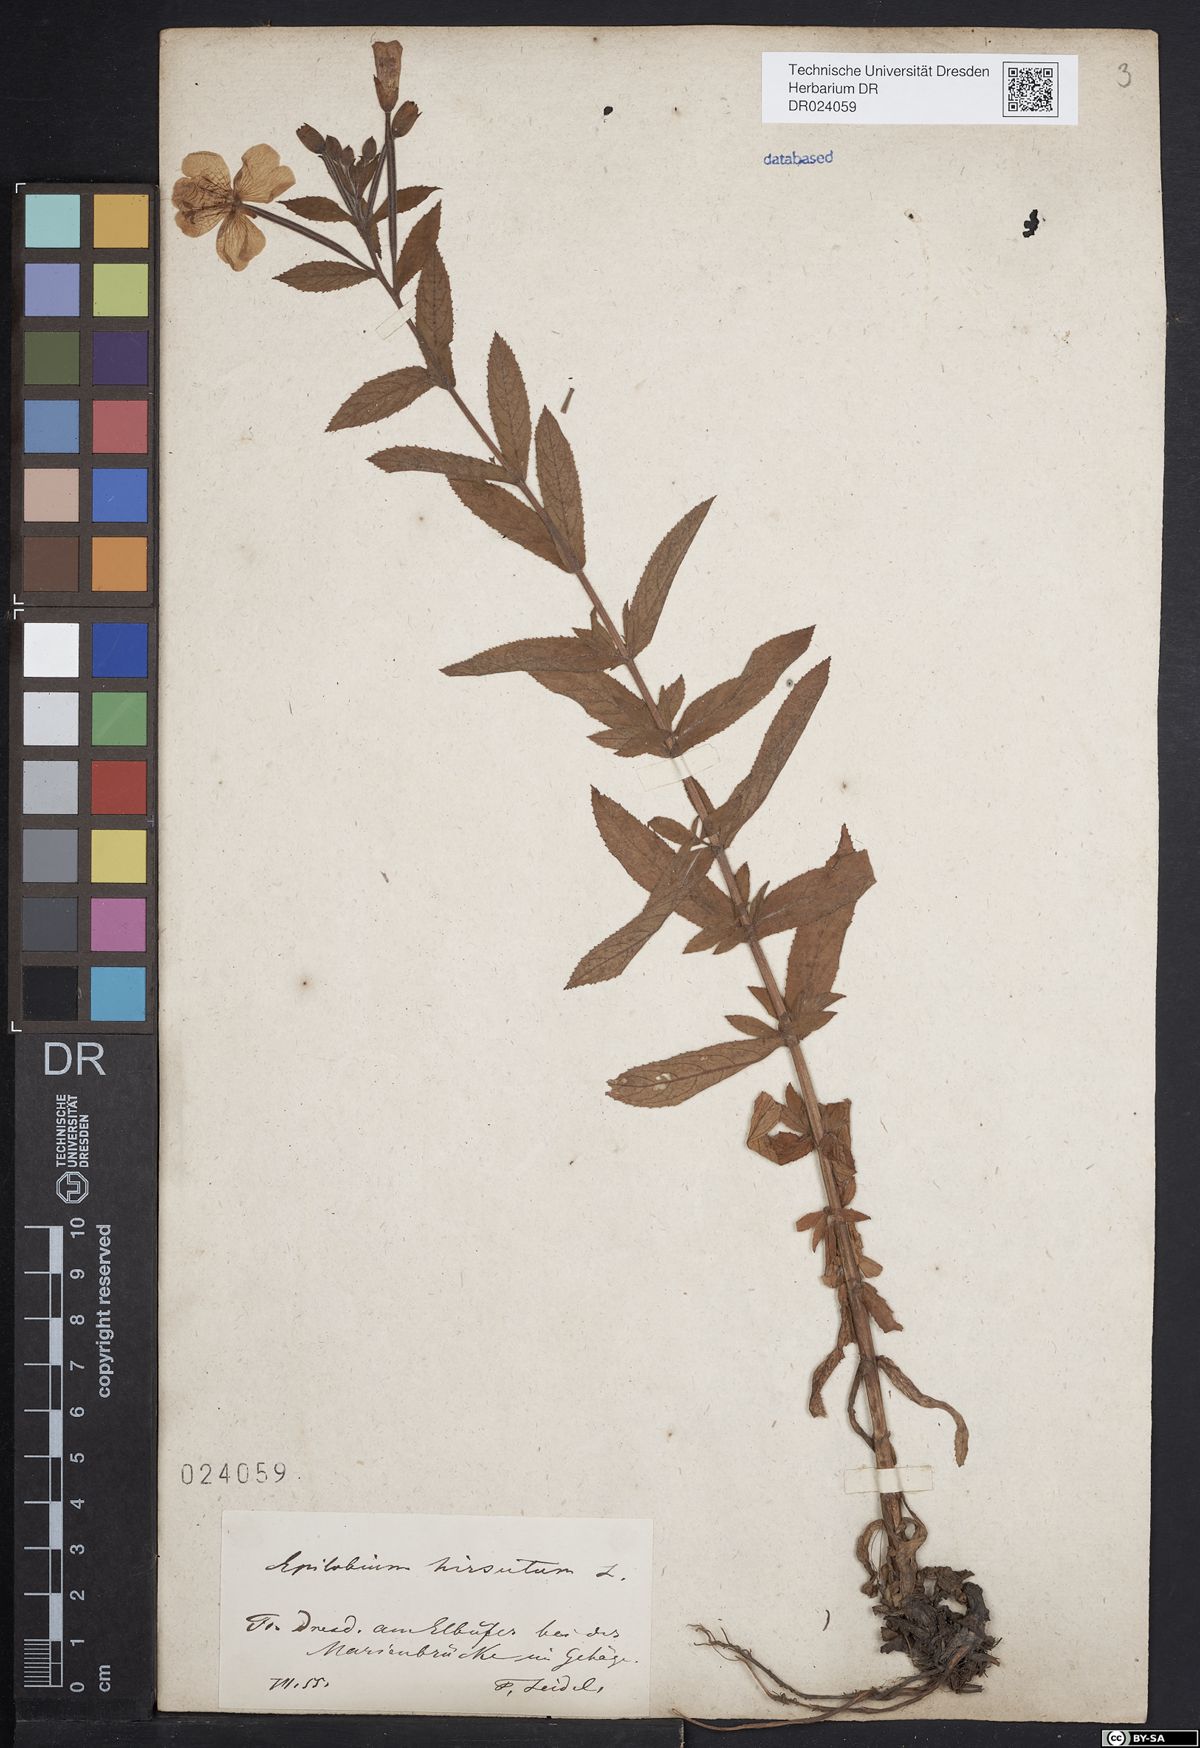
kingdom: Plantae
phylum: Tracheophyta
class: Magnoliopsida
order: Myrtales
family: Onagraceae
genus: Epilobium
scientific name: Epilobium hirsutum
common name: Great willowherb
